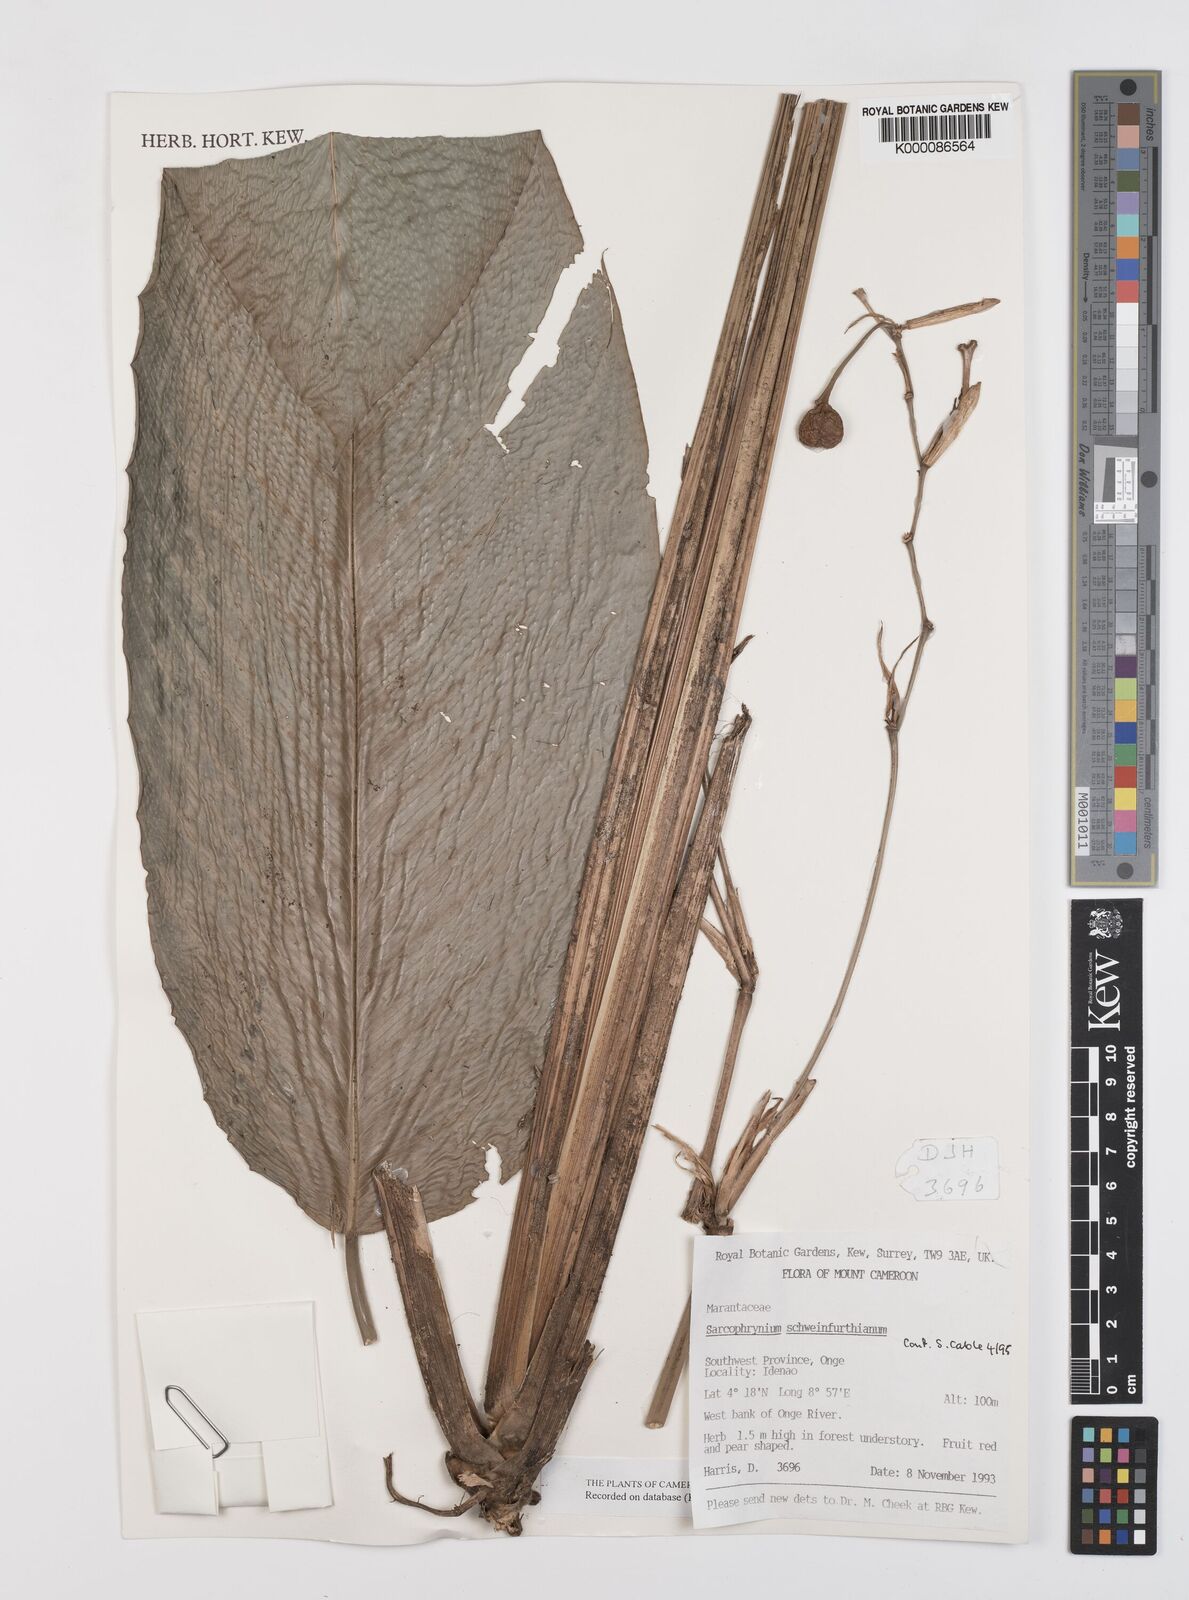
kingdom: Plantae
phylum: Tracheophyta
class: Liliopsida
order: Zingiberales
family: Marantaceae
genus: Sarcophrynium
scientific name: Sarcophrynium schweinfurthianum
